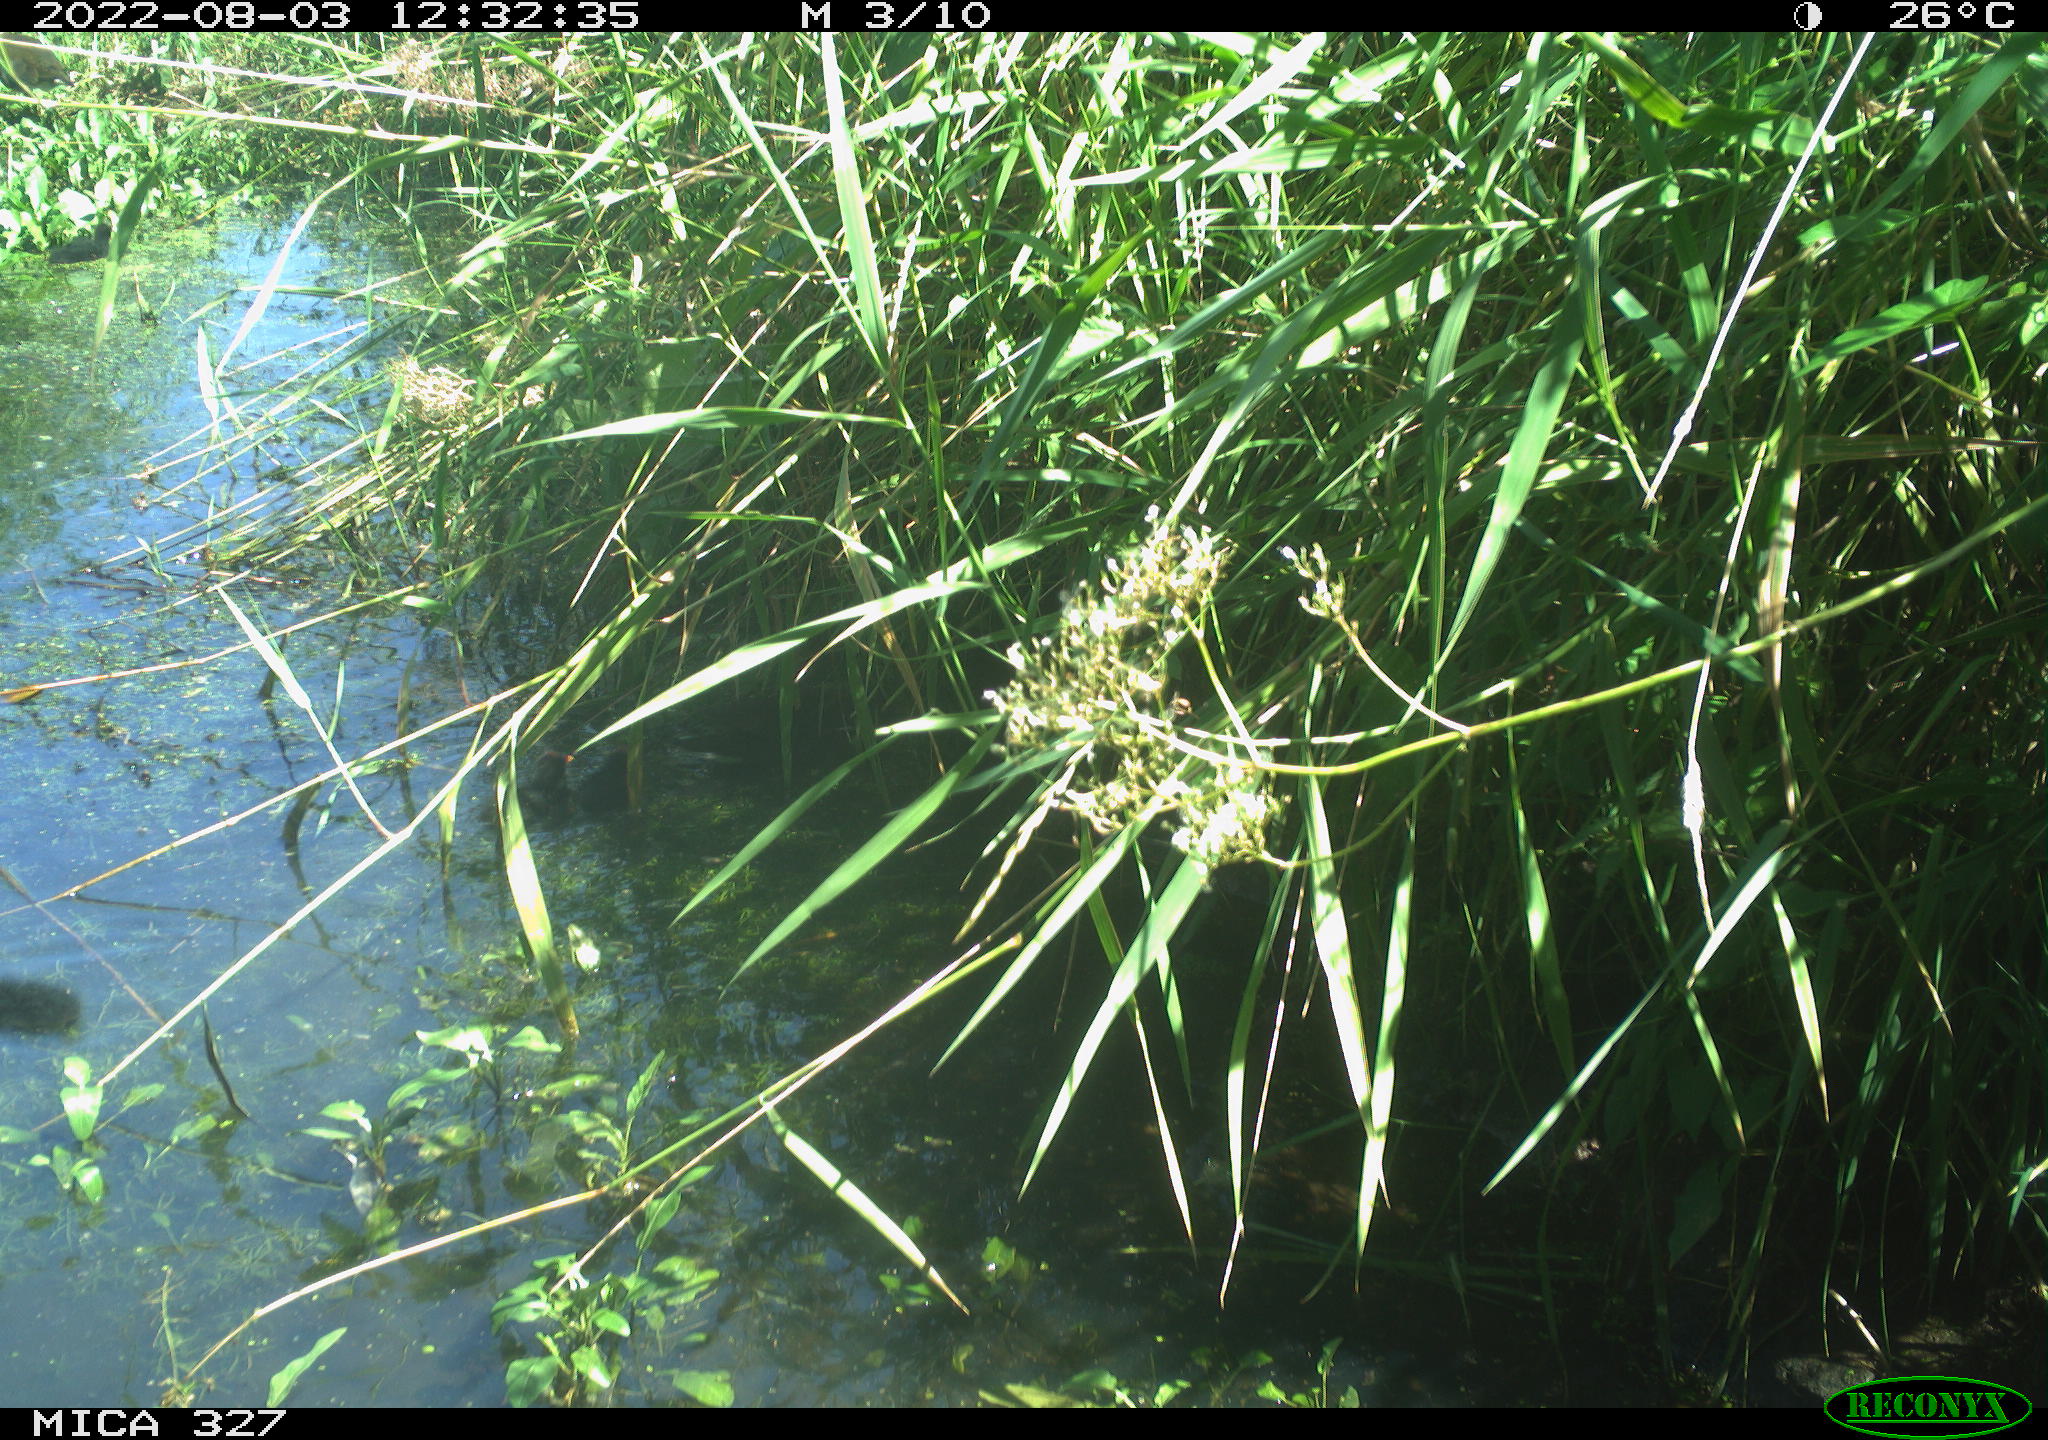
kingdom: Animalia
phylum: Chordata
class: Aves
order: Gruiformes
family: Rallidae
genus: Gallinula
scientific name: Gallinula chloropus
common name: Common moorhen
